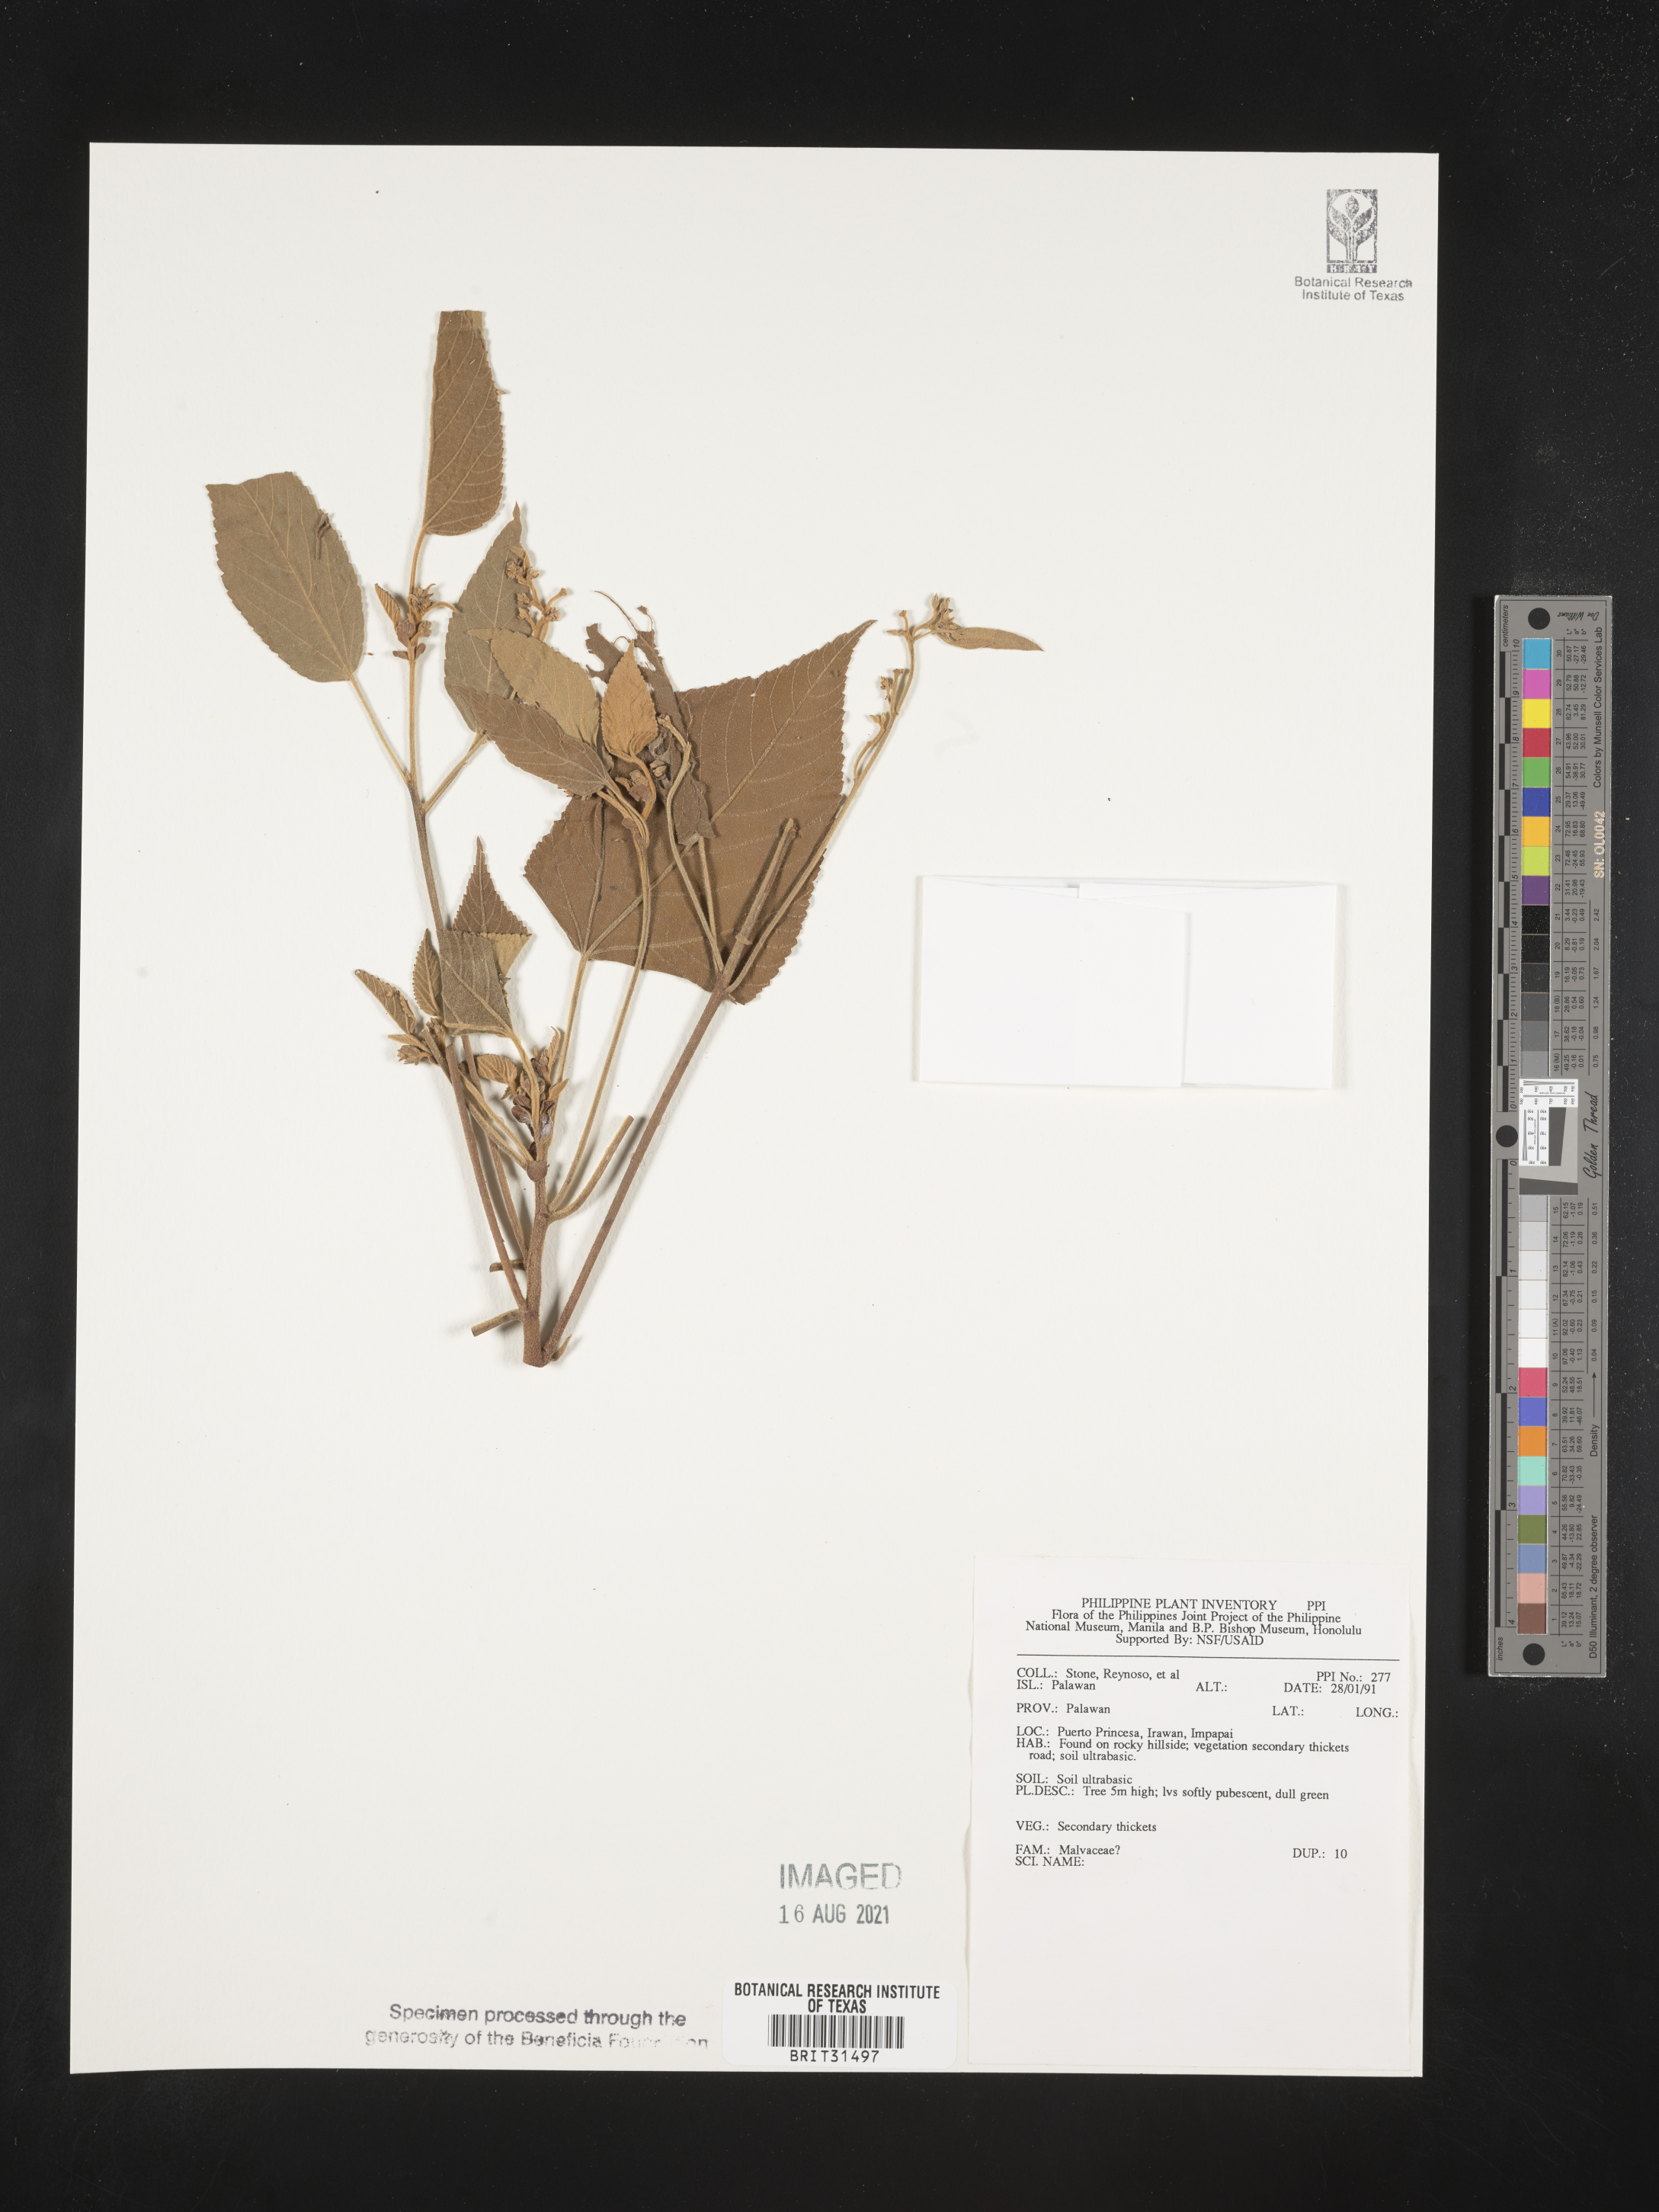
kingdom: Plantae
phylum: Tracheophyta
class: Magnoliopsida
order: Malvales
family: Malvaceae
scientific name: Malvaceae
